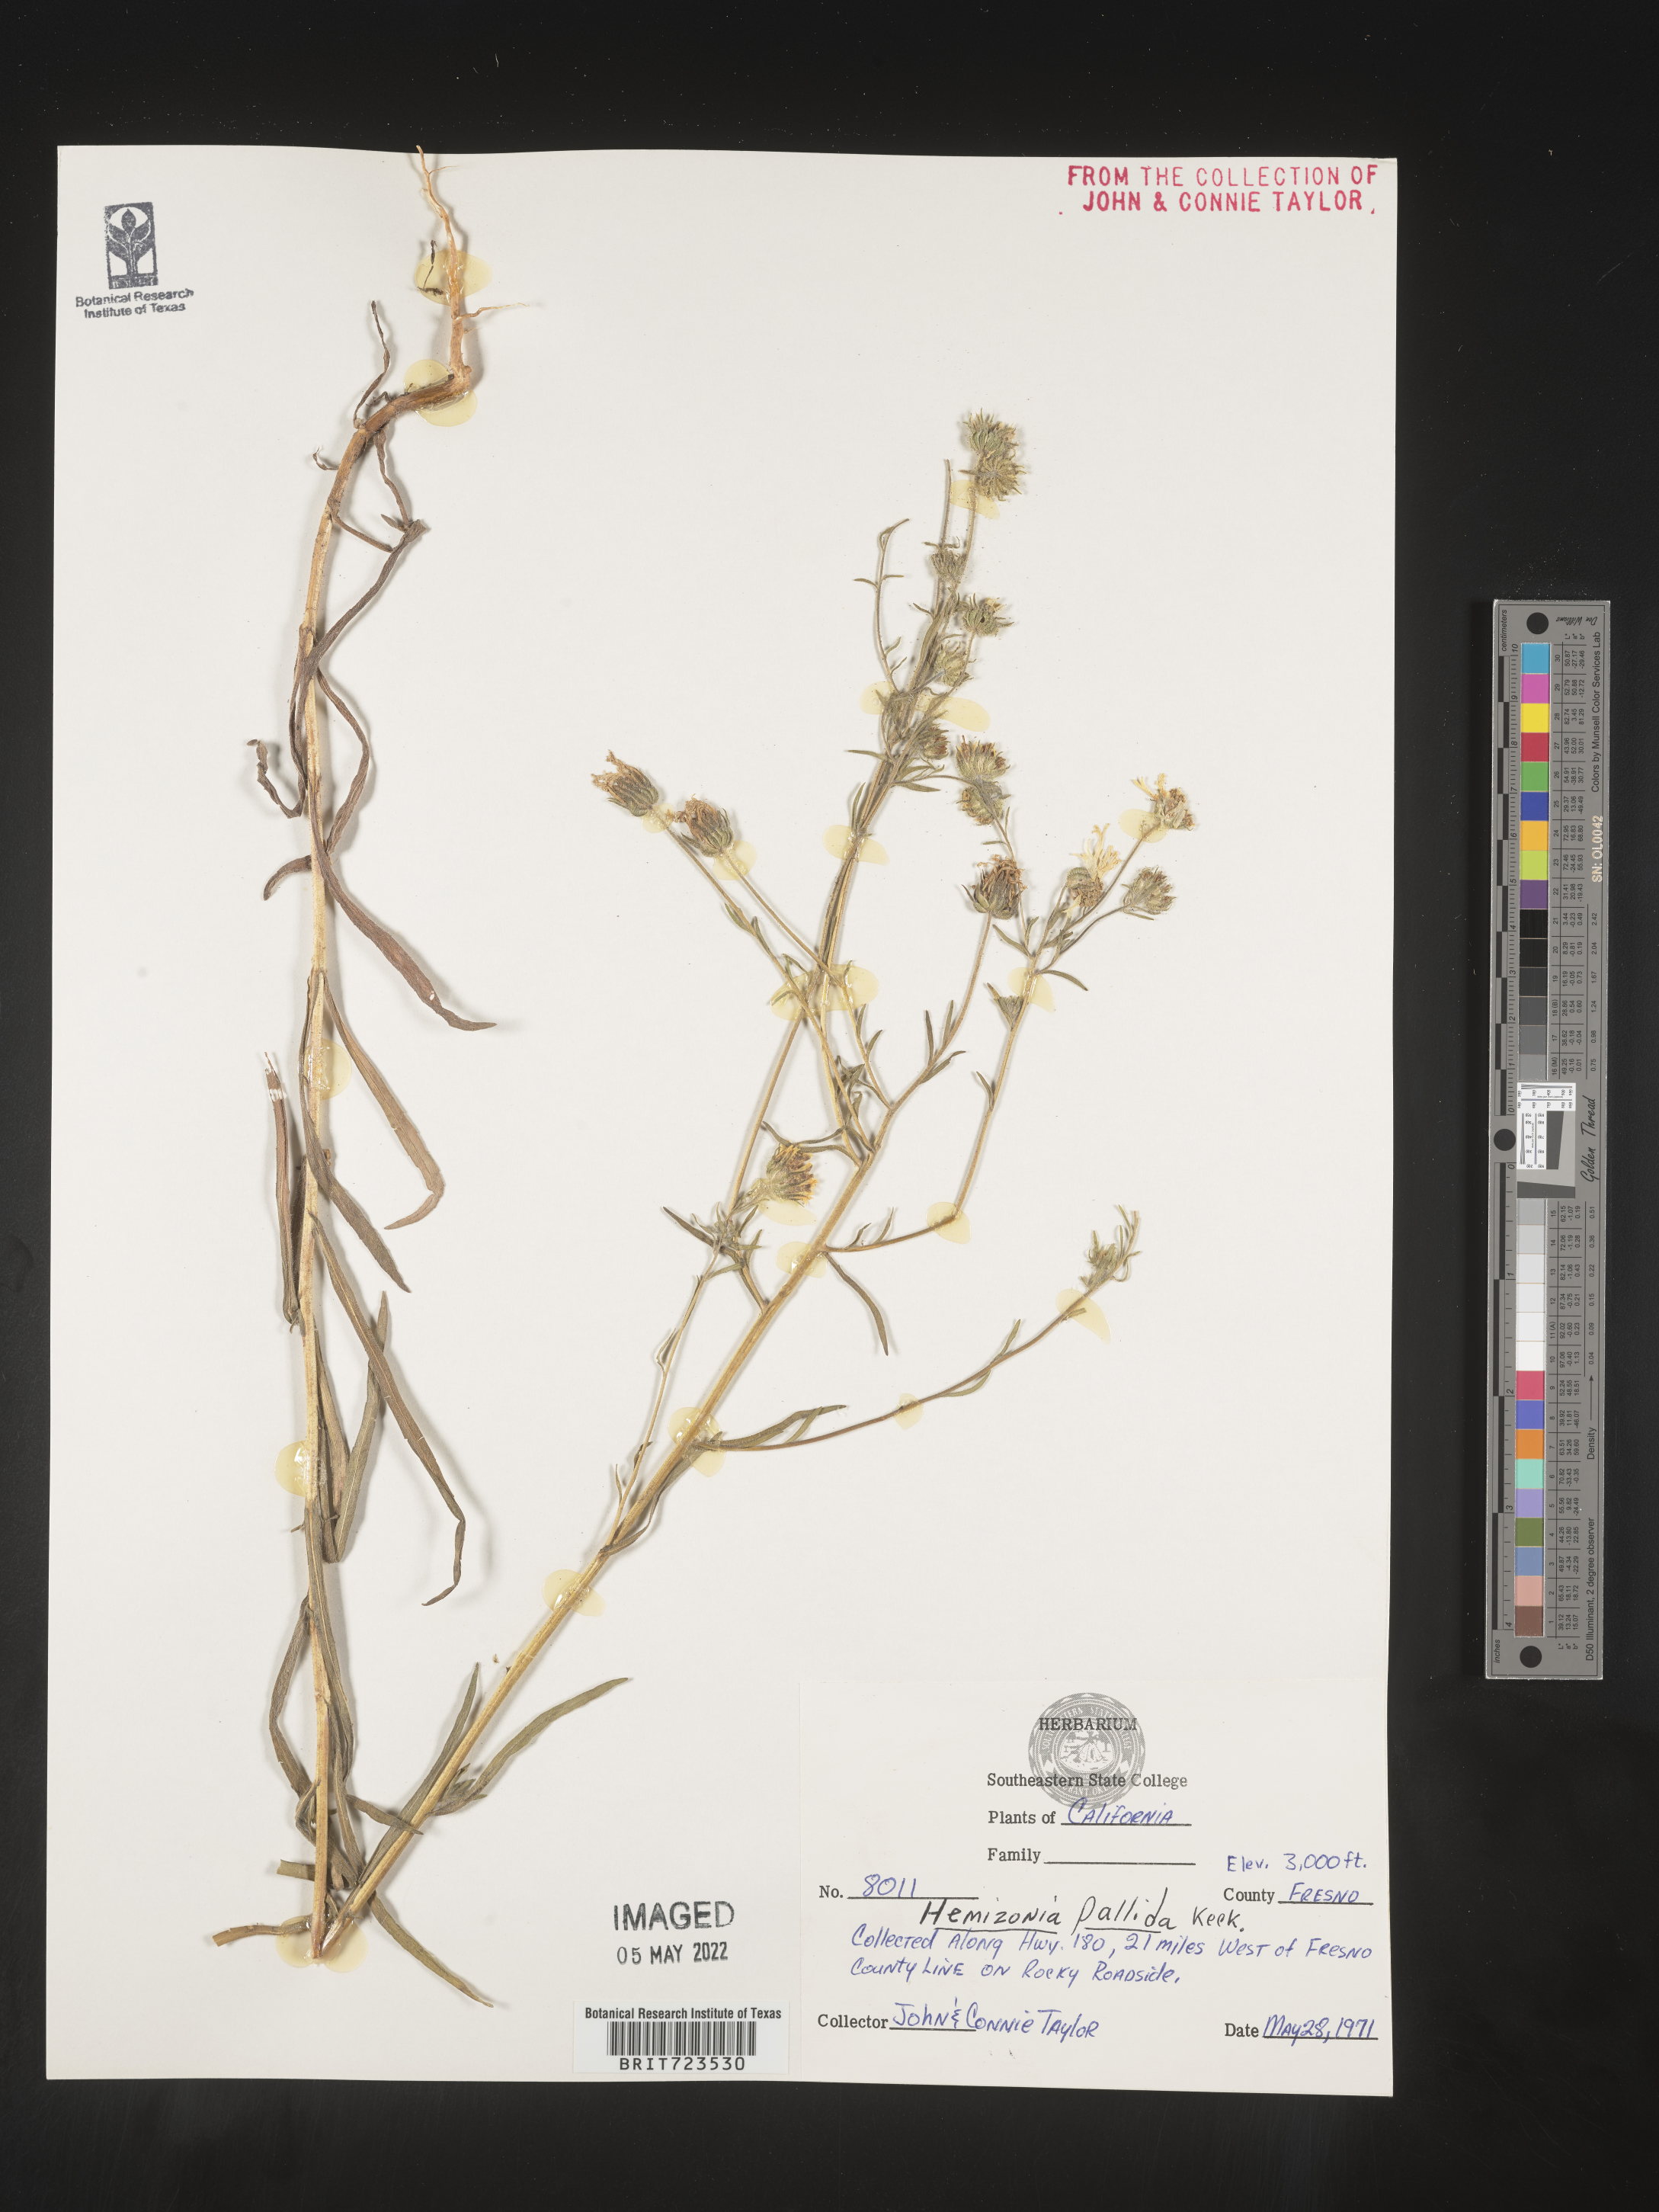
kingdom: Plantae
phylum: Tracheophyta
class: Magnoliopsida
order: Asterales
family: Asteraceae
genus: Hemizonia
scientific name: Hemizonia
